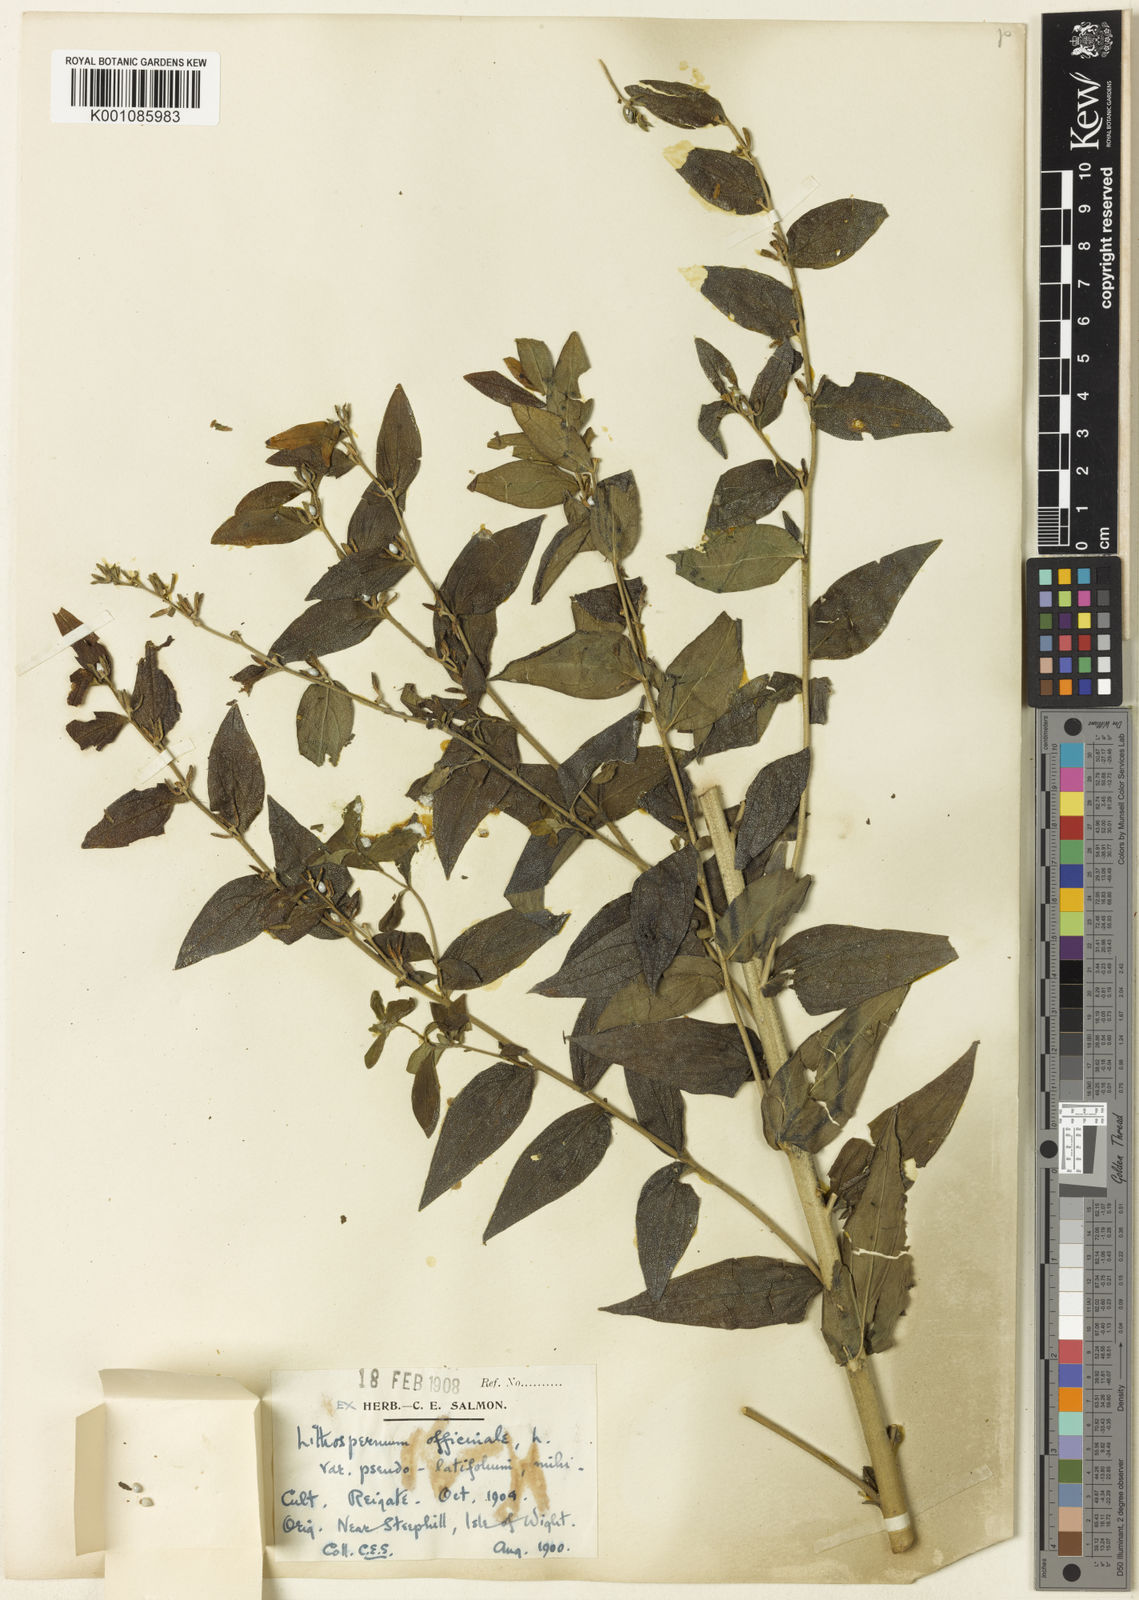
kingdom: Plantae
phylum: Tracheophyta
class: Magnoliopsida
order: Boraginales
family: Boraginaceae
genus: Lithospermum
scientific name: Lithospermum officinale
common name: Common gromwell
